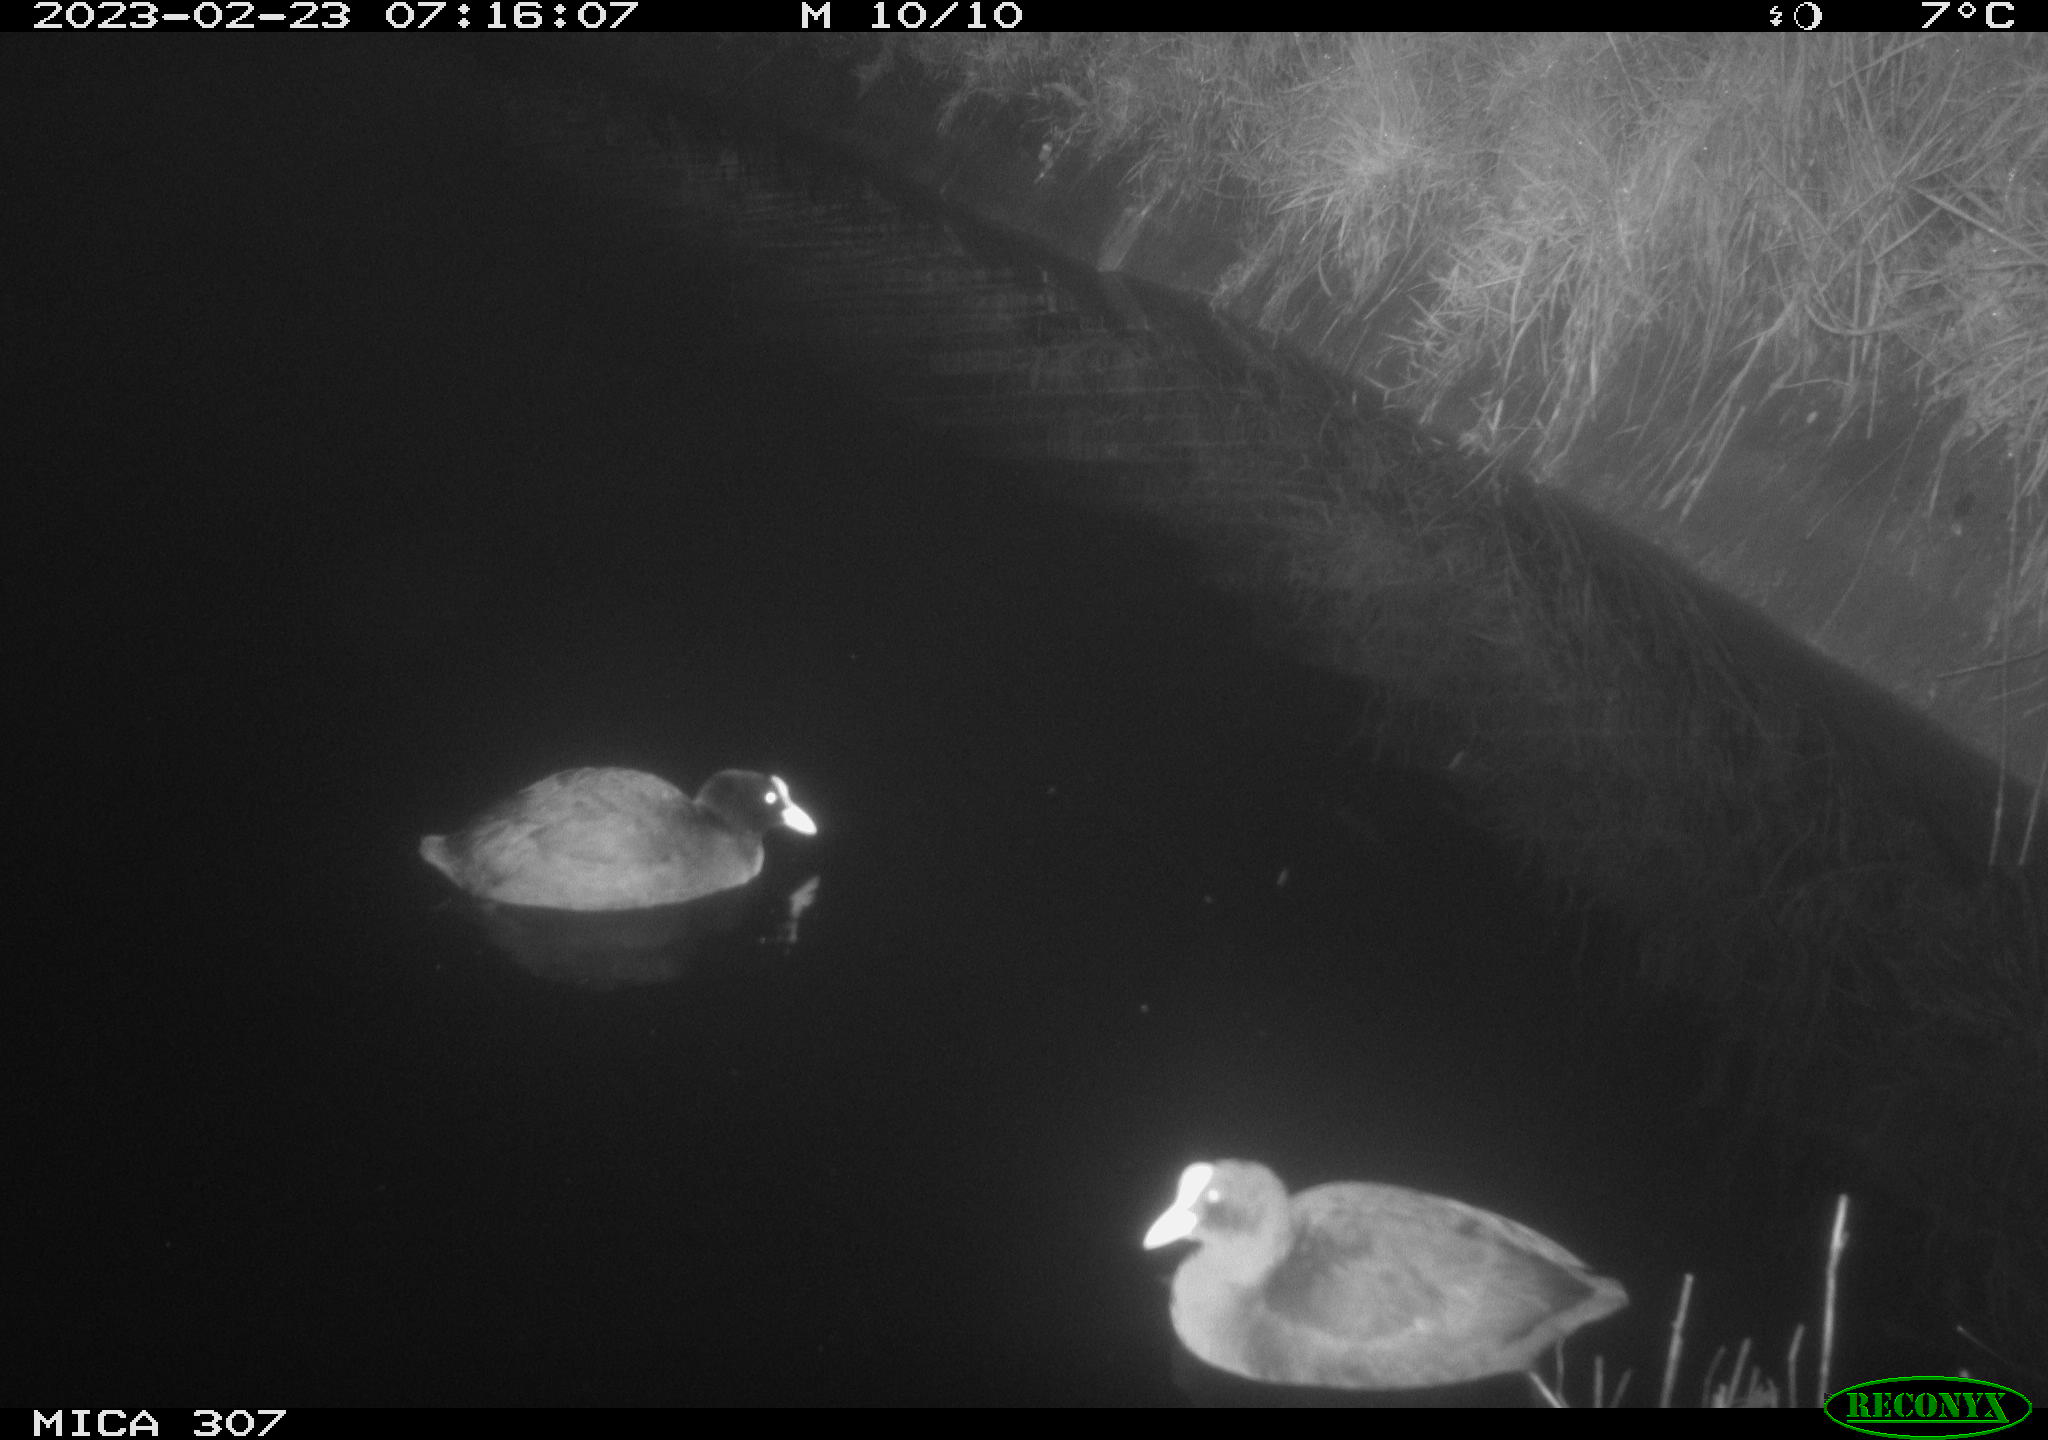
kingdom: Animalia
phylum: Chordata
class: Aves
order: Anseriformes
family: Anatidae
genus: Anas
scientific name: Anas
